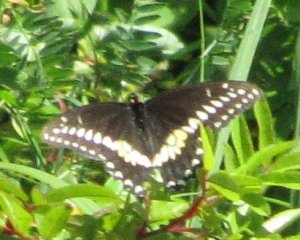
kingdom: Animalia
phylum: Arthropoda
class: Insecta
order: Lepidoptera
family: Papilionidae
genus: Papilio
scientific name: Papilio polyxenes
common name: Black Swallowtail
